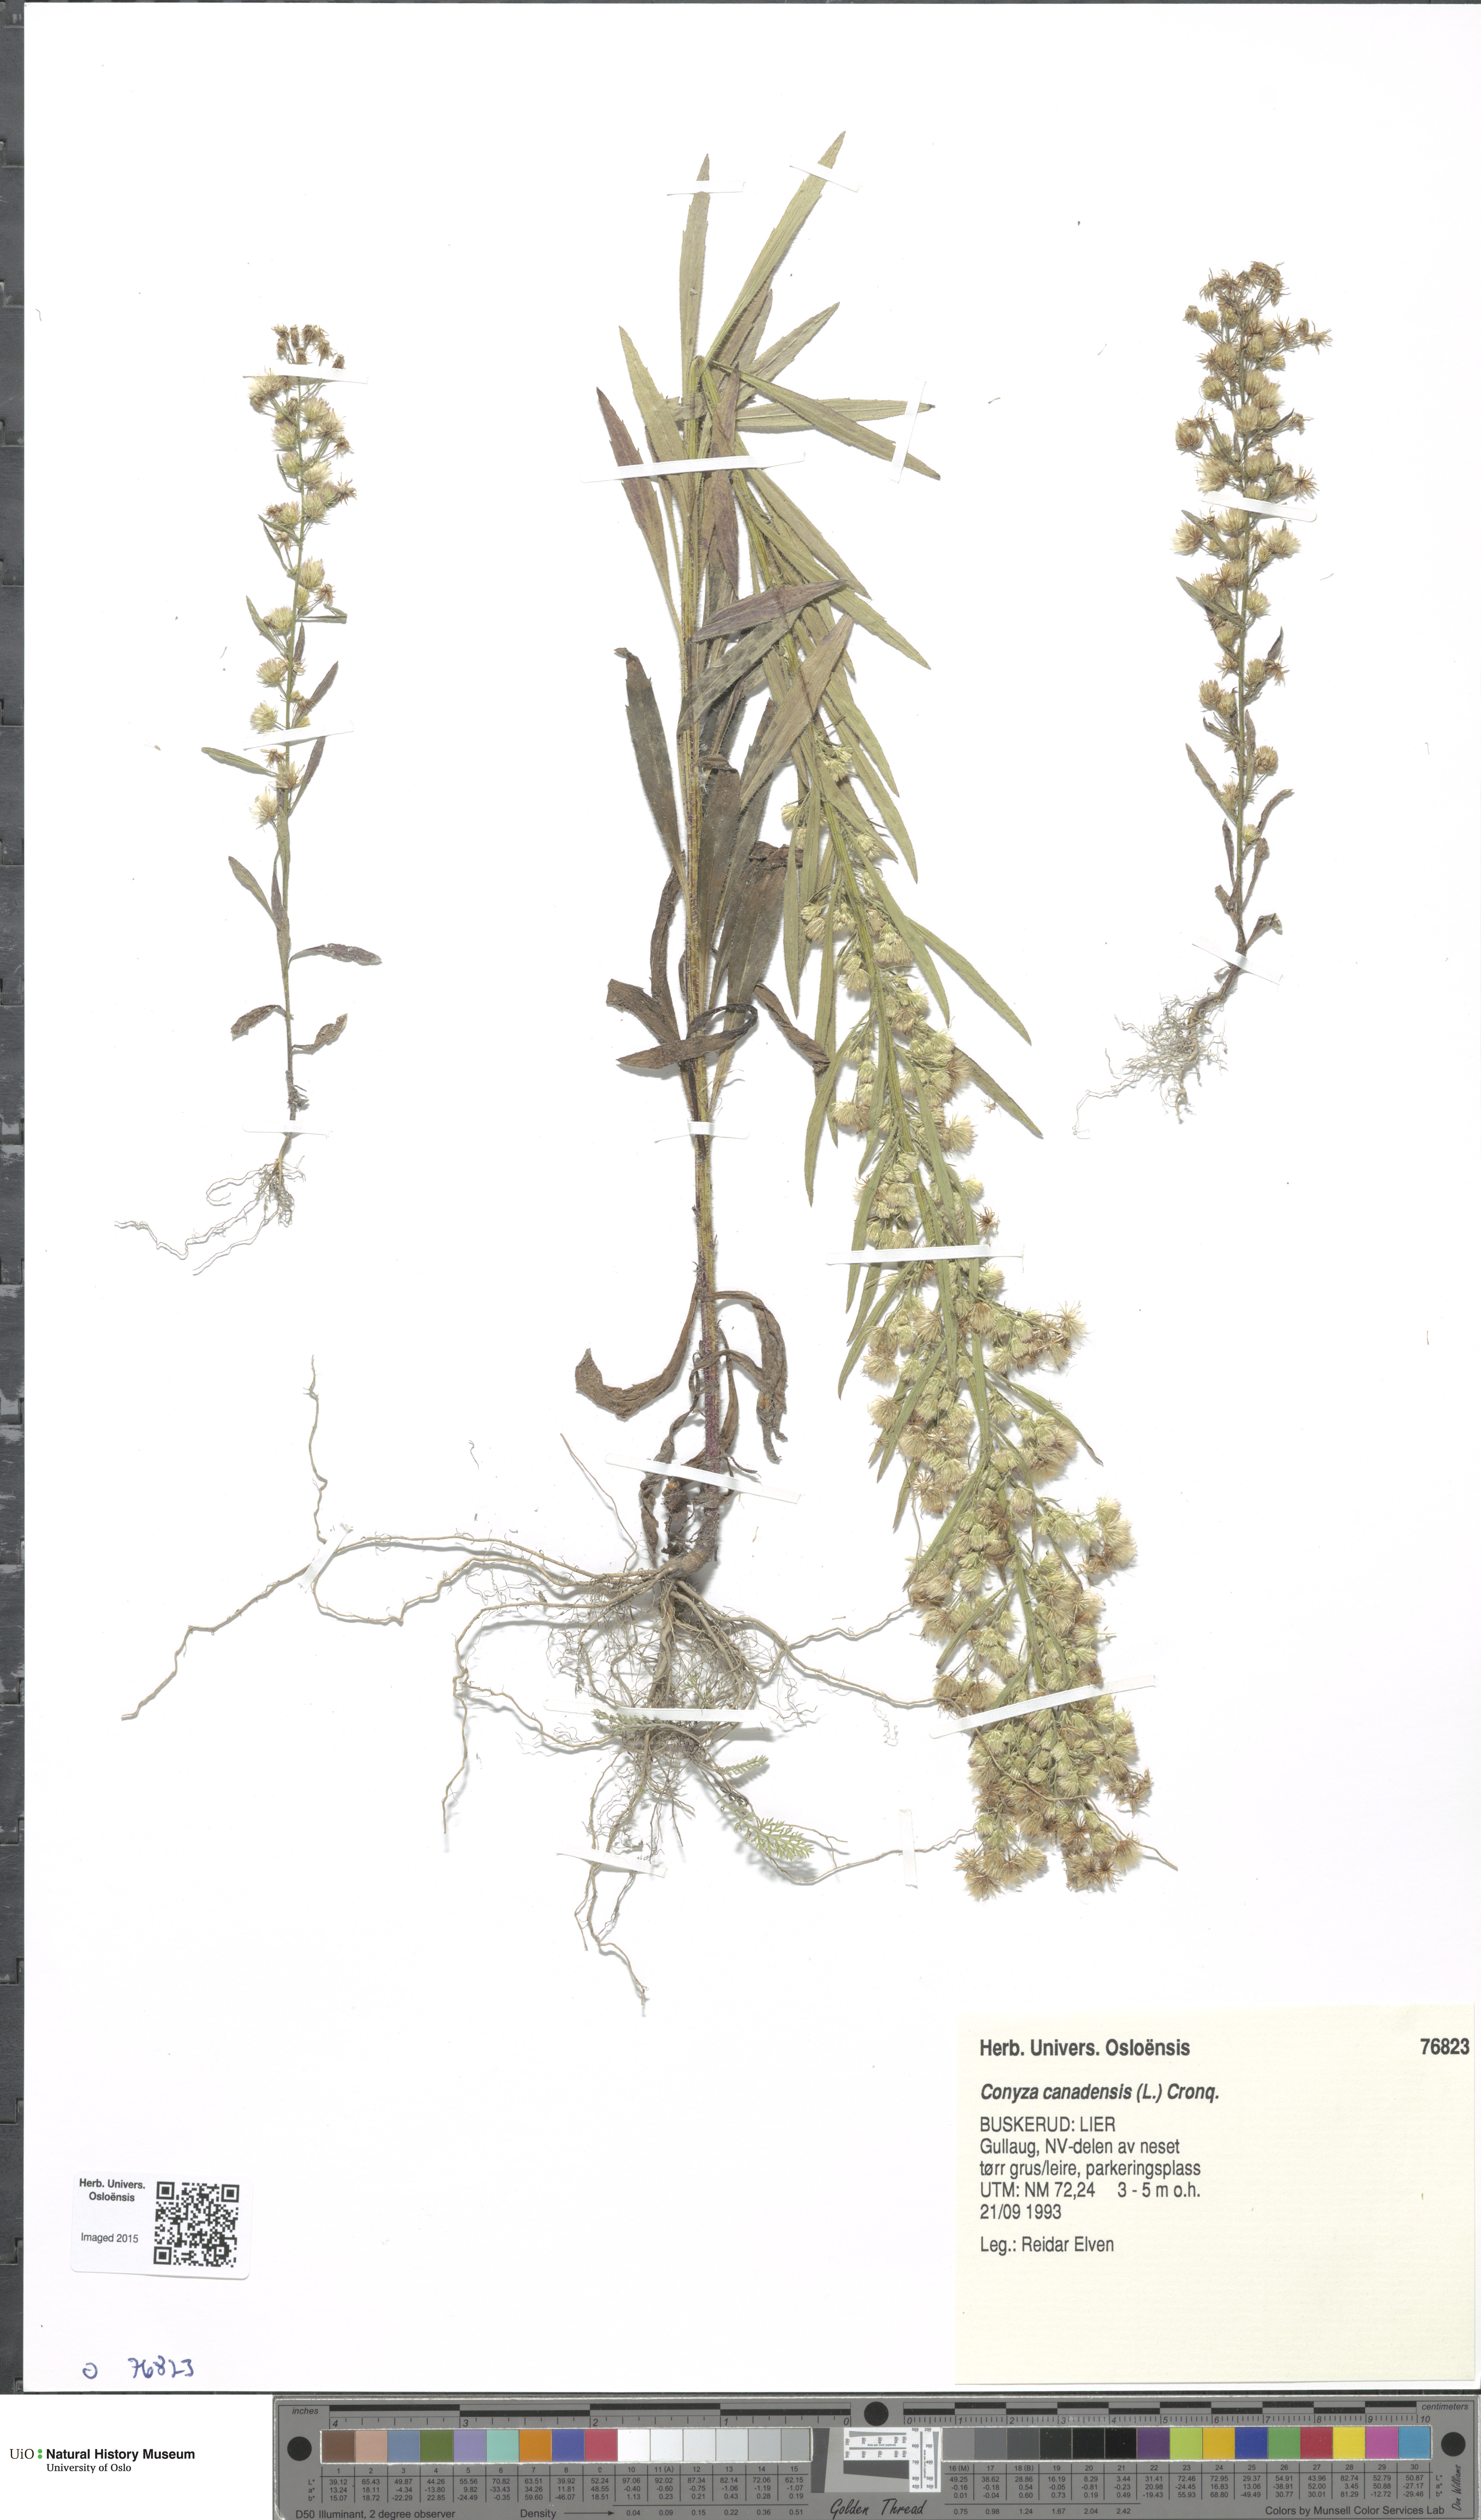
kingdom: Plantae
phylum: Tracheophyta
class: Magnoliopsida
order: Asterales
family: Asteraceae
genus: Erigeron
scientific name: Erigeron canadensis
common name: Canadian fleabane
